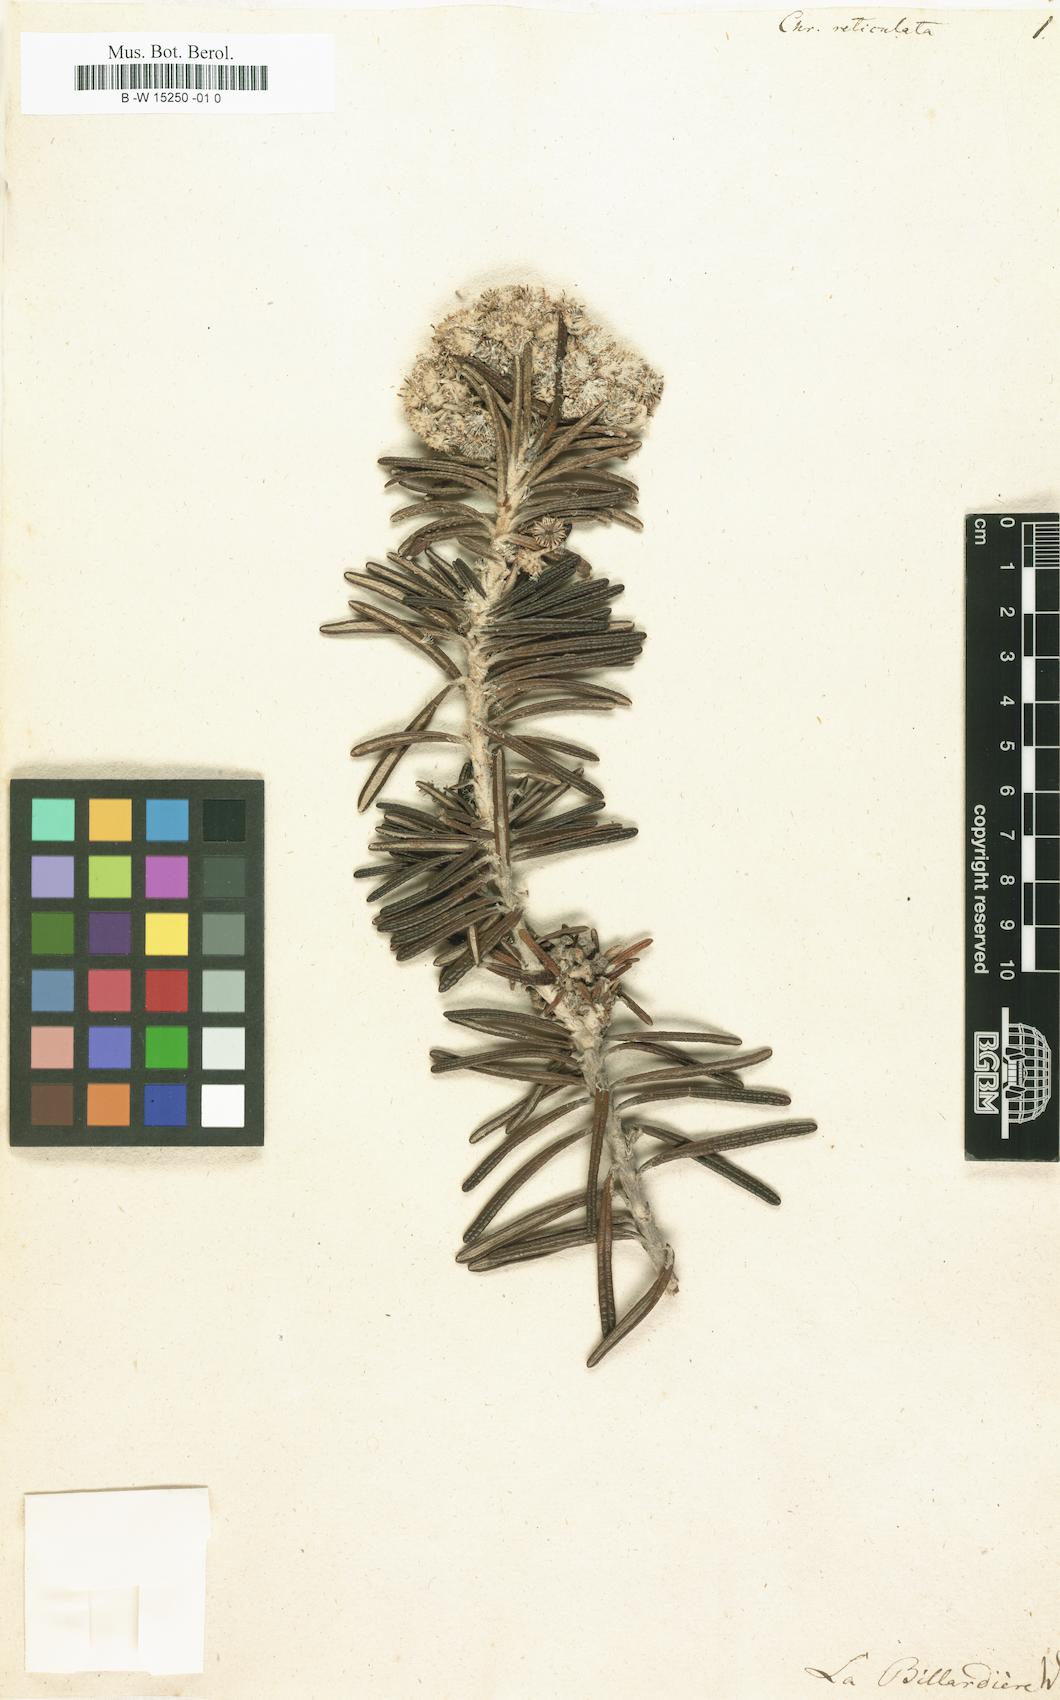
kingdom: Plantae
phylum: Tracheophyta
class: Magnoliopsida
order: Asterales
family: Asteraceae
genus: Ozothamnus
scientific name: Ozothamnus reticulatus
